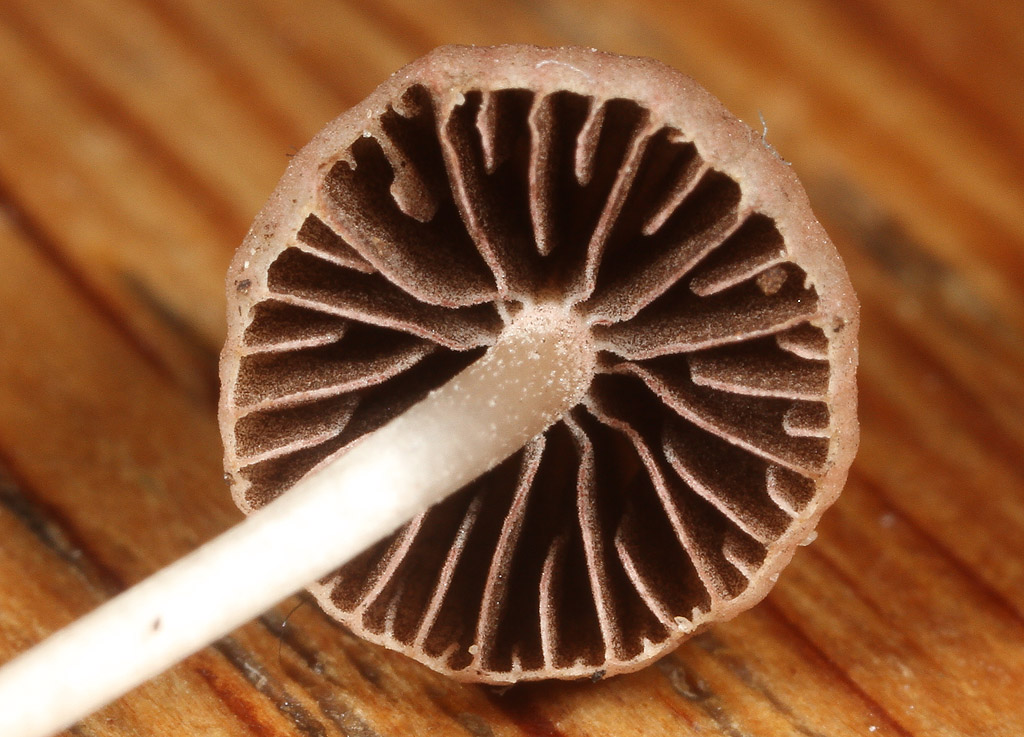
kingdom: Fungi
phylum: Basidiomycota
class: Agaricomycetes
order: Agaricales
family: Psathyrellaceae
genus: Psathyrella
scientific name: Psathyrella prona
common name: vej-mørkhat
